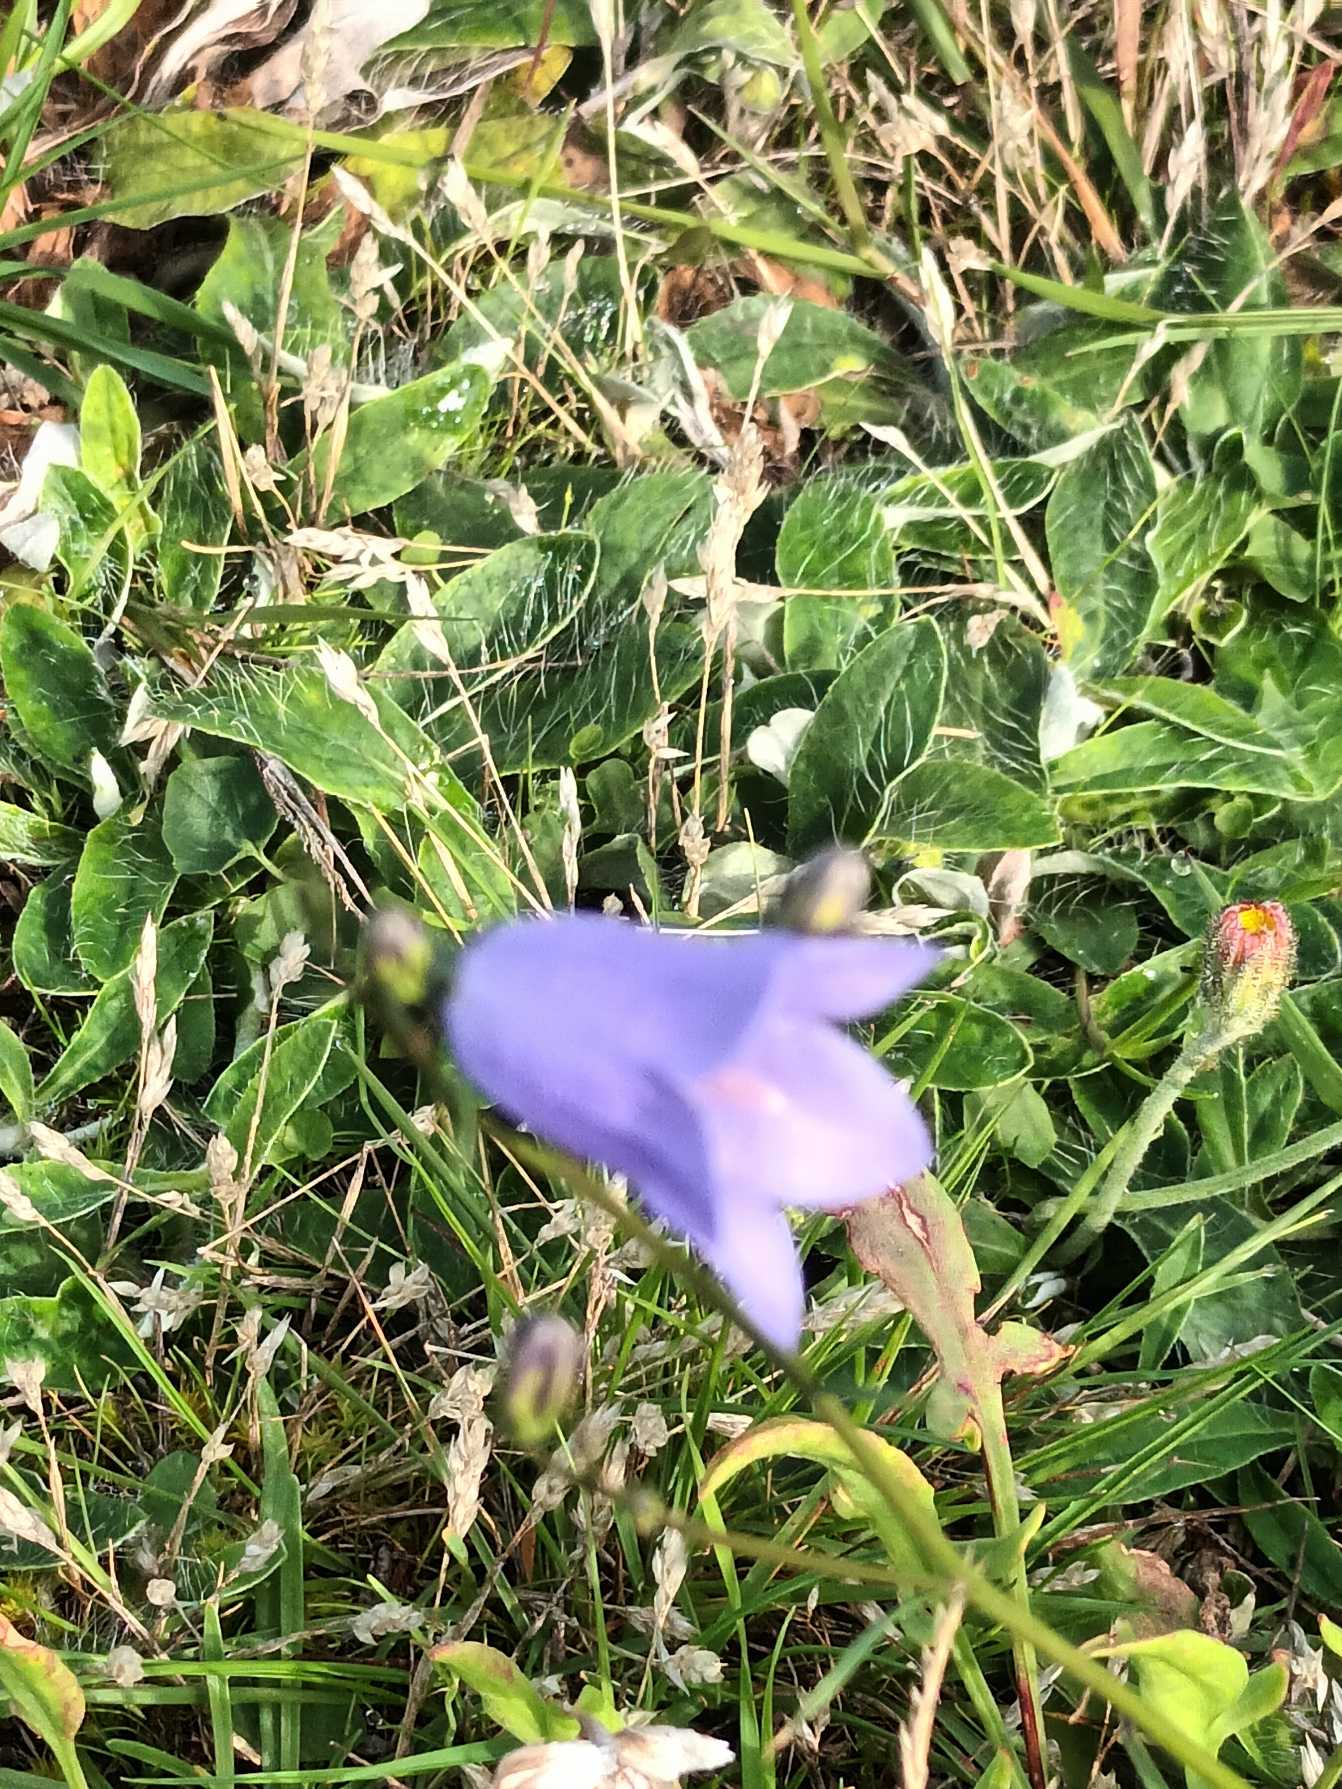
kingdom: Plantae
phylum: Tracheophyta
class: Magnoliopsida
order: Asterales
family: Campanulaceae
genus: Campanula
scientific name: Campanula rotundifolia
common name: Liden klokke
